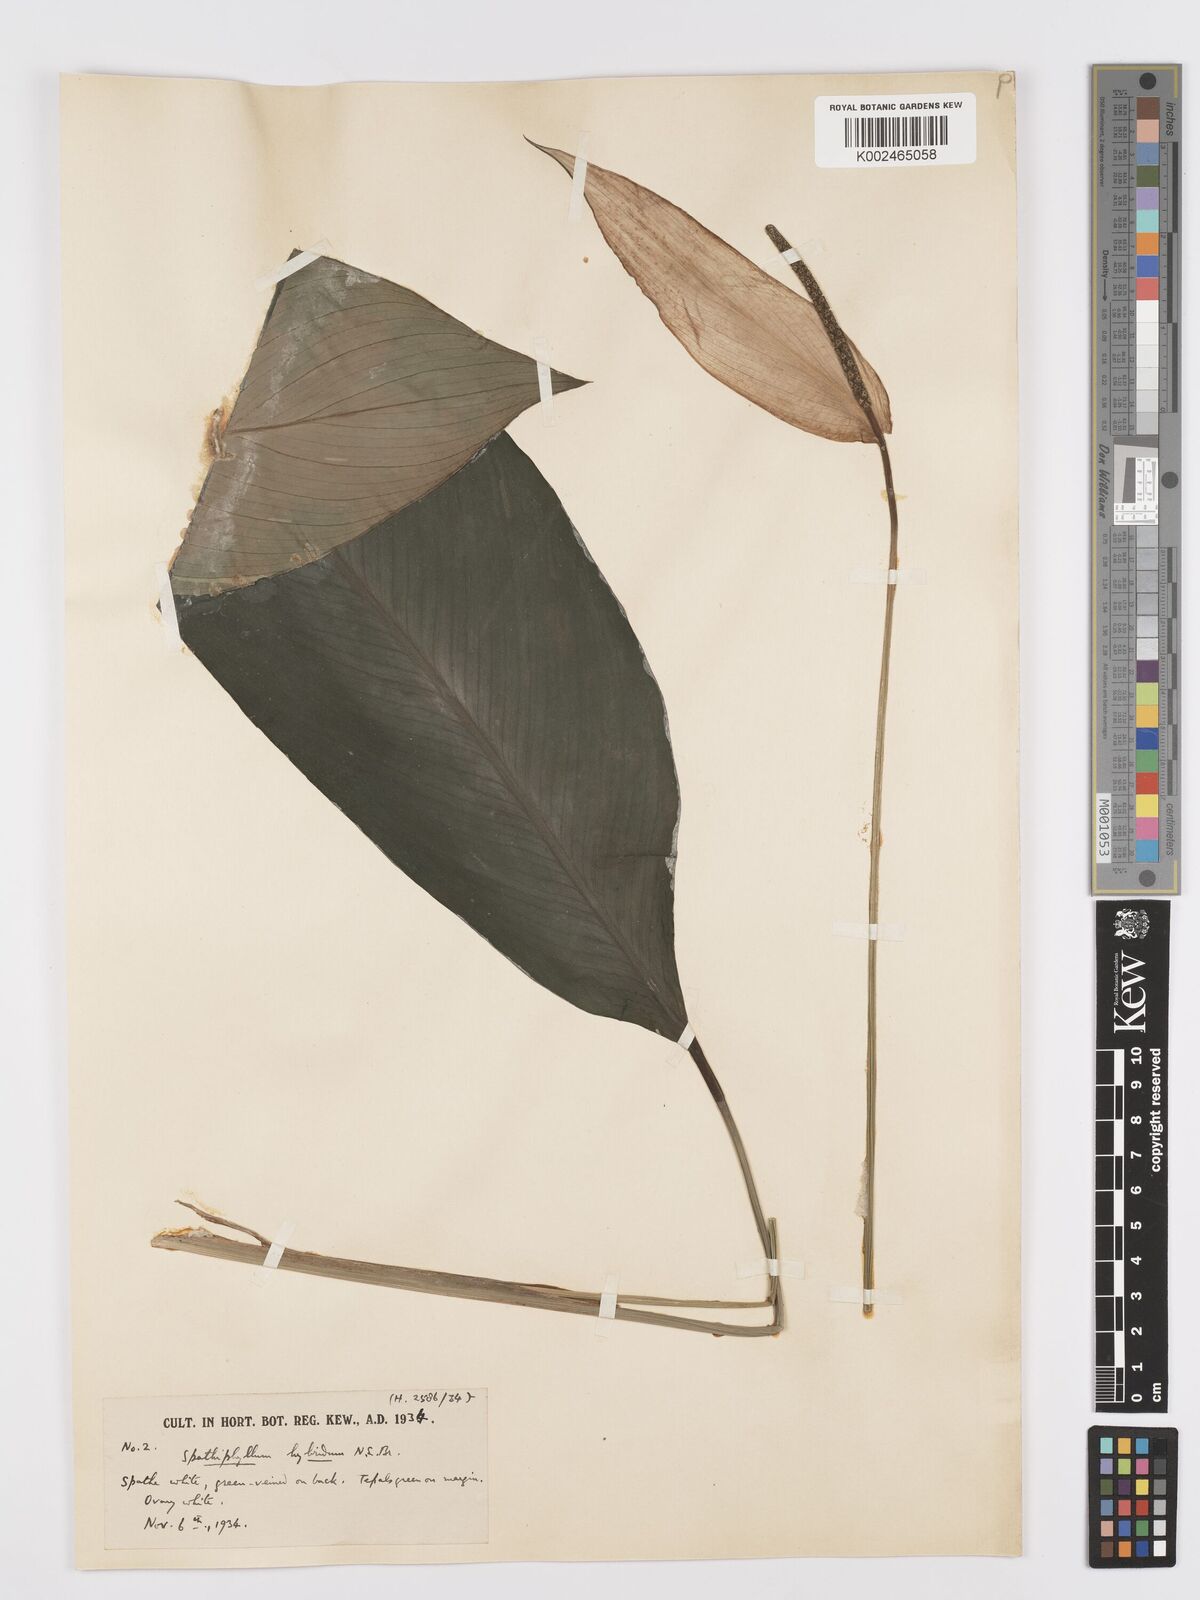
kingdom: Plantae
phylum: Tracheophyta
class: Liliopsida
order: Alismatales
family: Araceae
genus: Spathiphyllum
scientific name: Spathiphyllum hybridum
